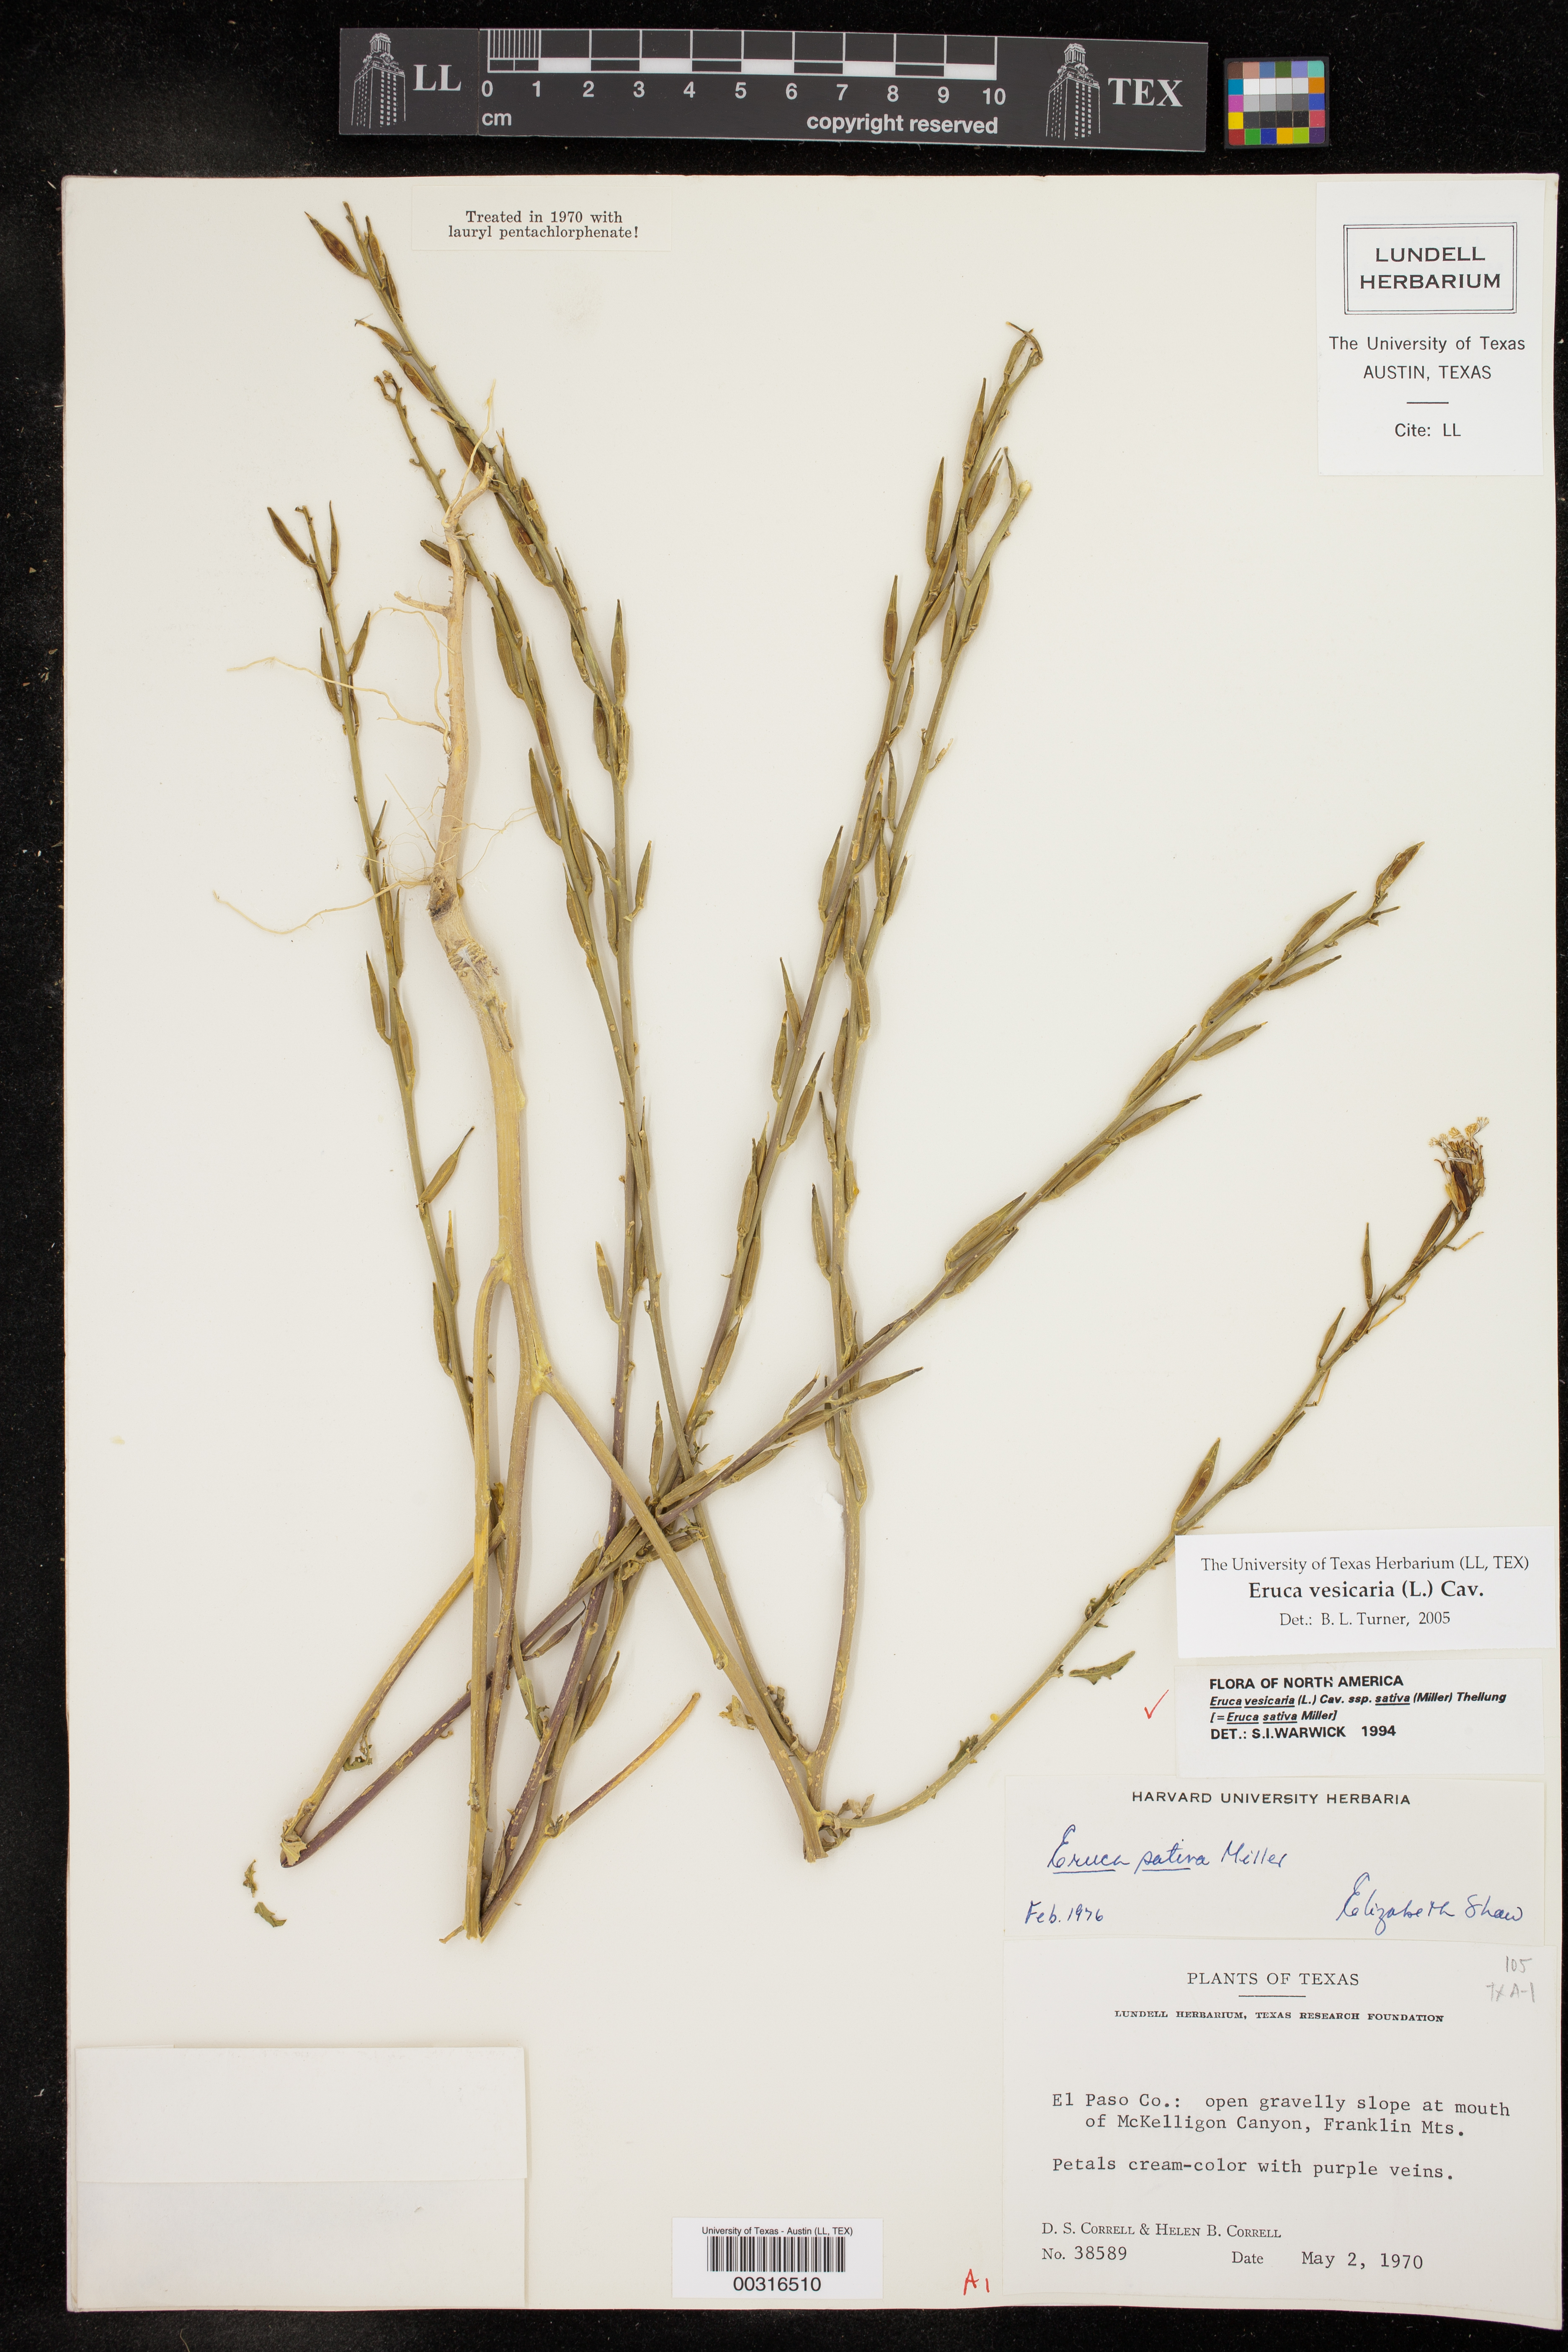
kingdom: Plantae
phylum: Tracheophyta
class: Magnoliopsida
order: Brassicales
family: Brassicaceae
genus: Eruca
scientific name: Eruca vesicaria
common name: Garden rocket
